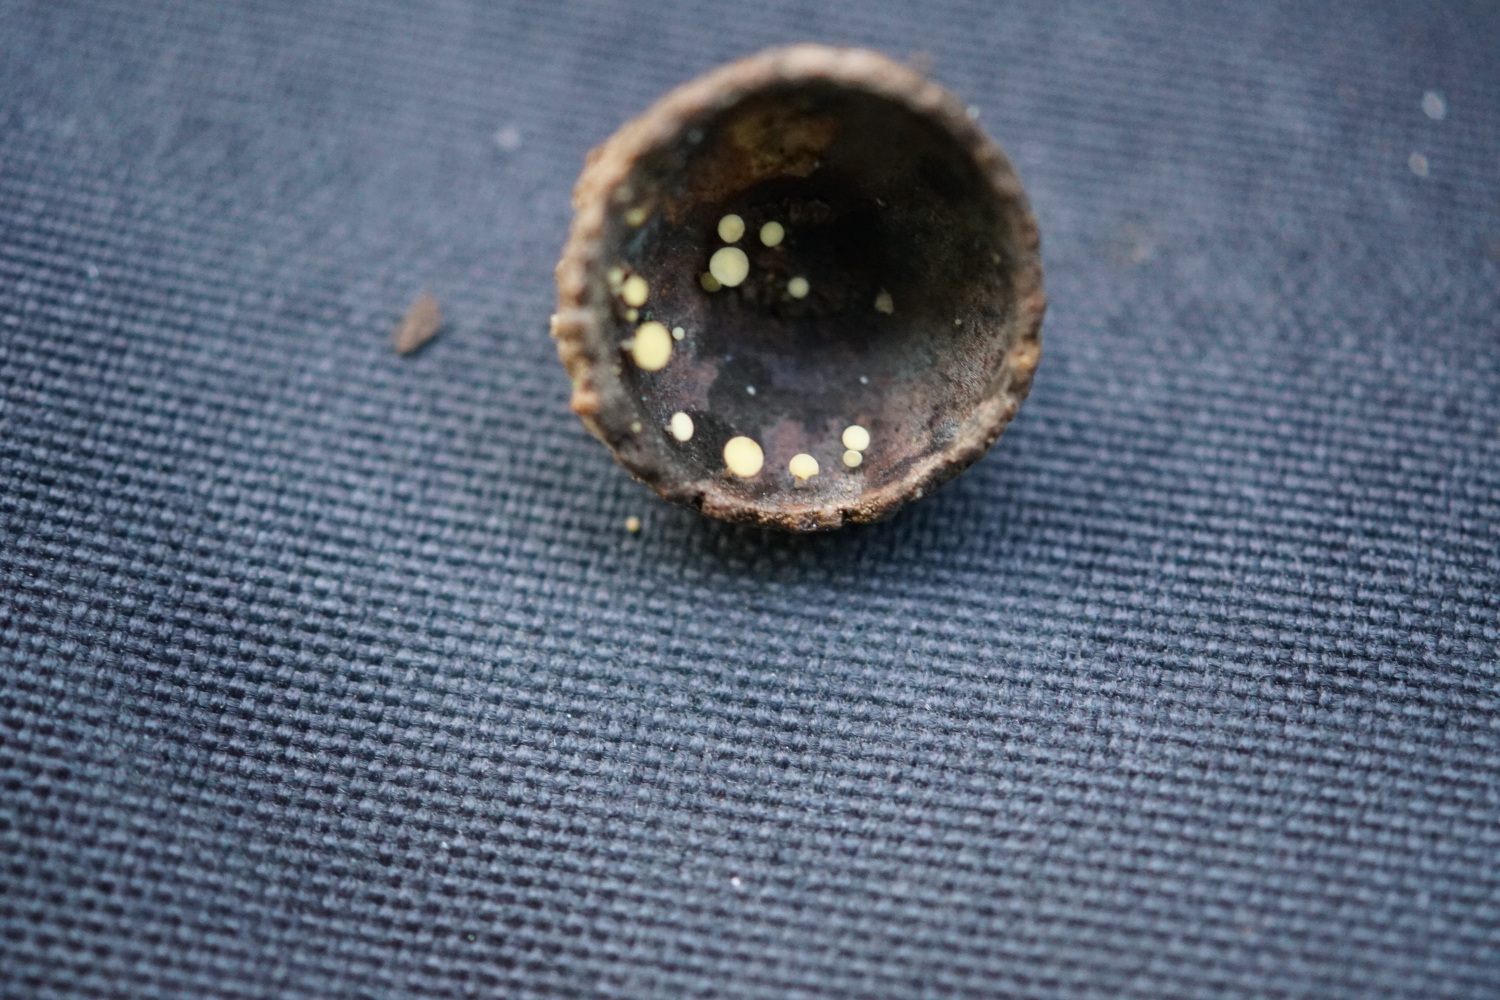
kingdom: Fungi
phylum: Ascomycota
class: Leotiomycetes
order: Helotiales
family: Helotiaceae
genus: Hymenoscyphus
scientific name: Hymenoscyphus fructigenus
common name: frugt-stilkskive
